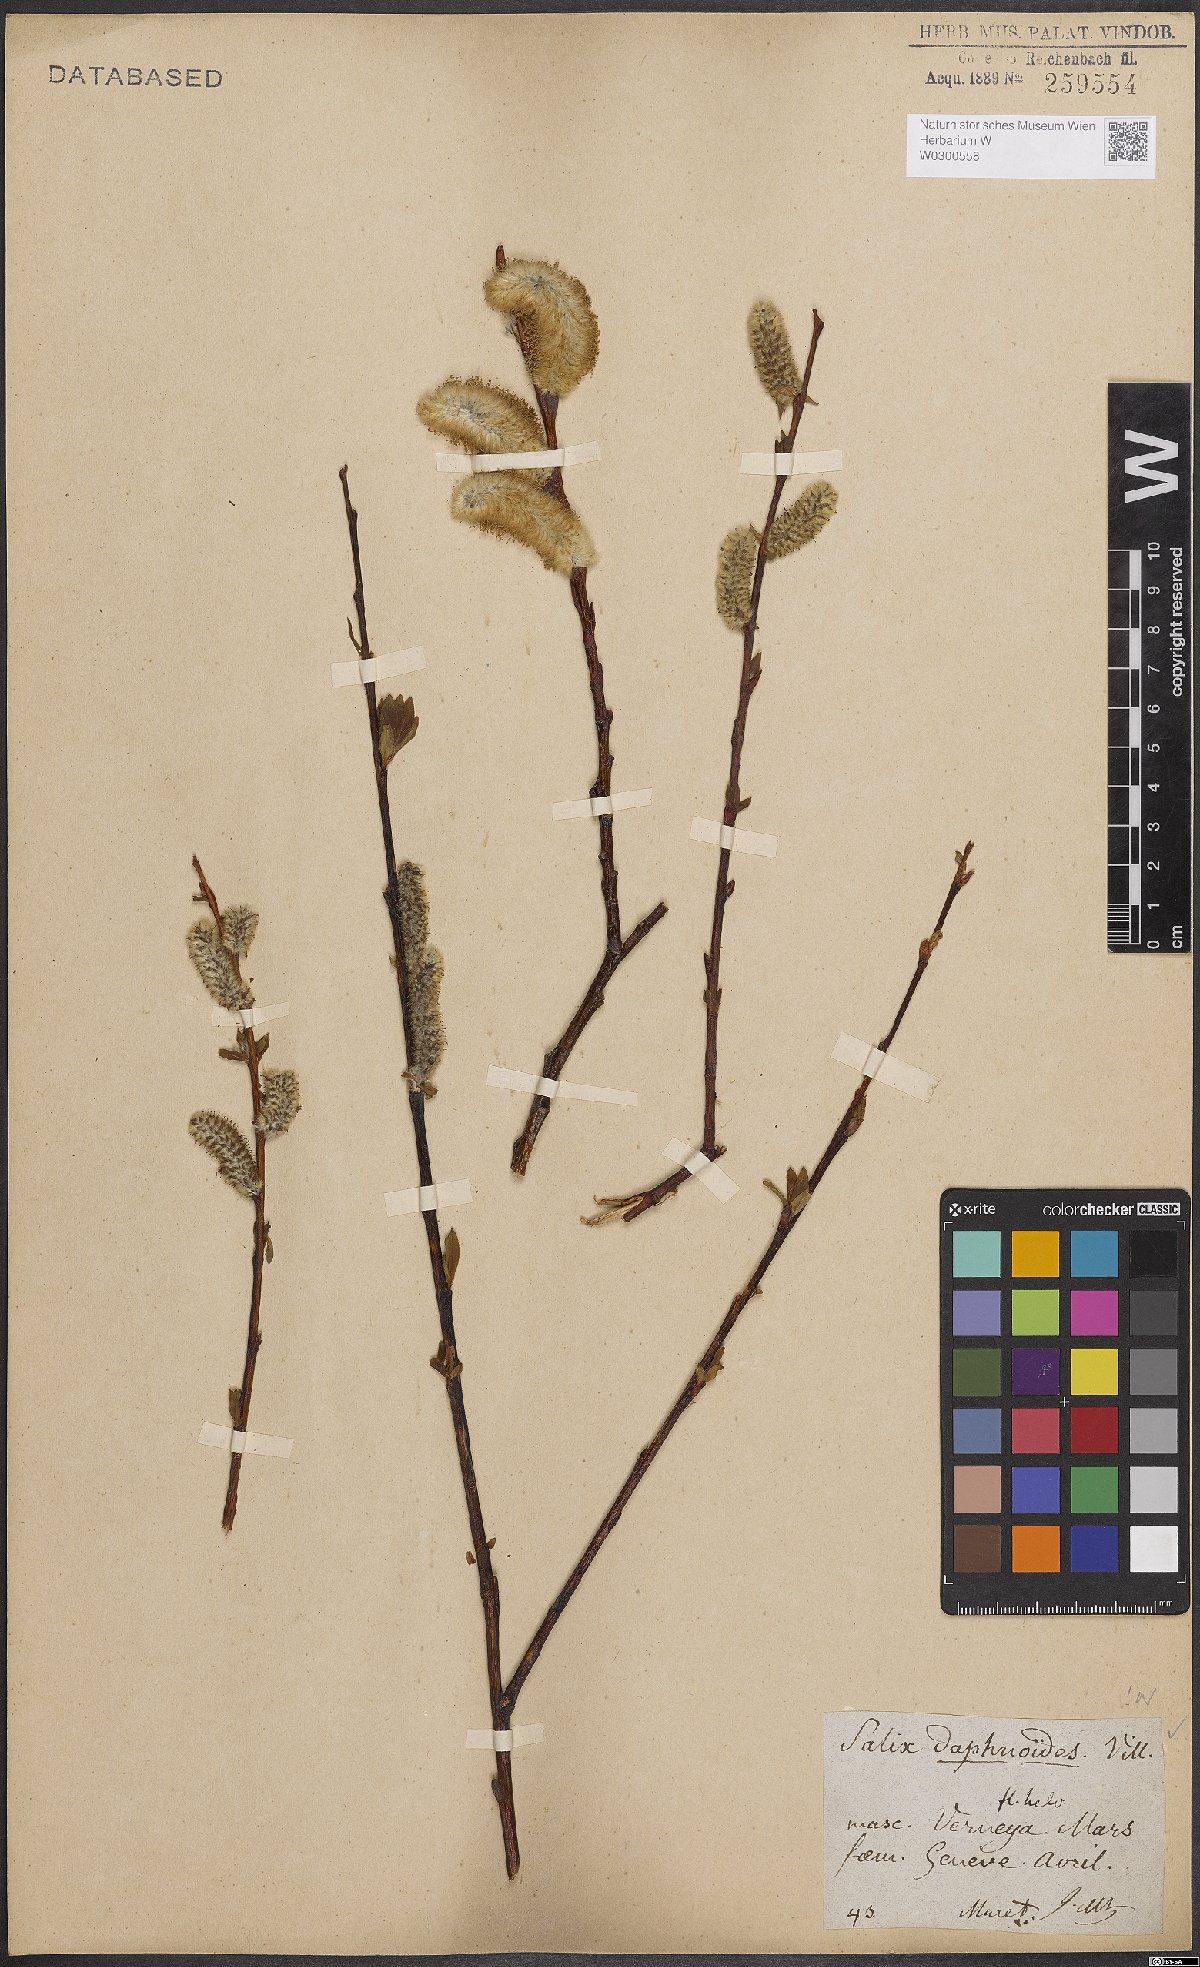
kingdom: Plantae
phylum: Tracheophyta
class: Magnoliopsida
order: Malpighiales
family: Salicaceae
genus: Salix
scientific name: Salix daphnoides
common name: European violet-willow
